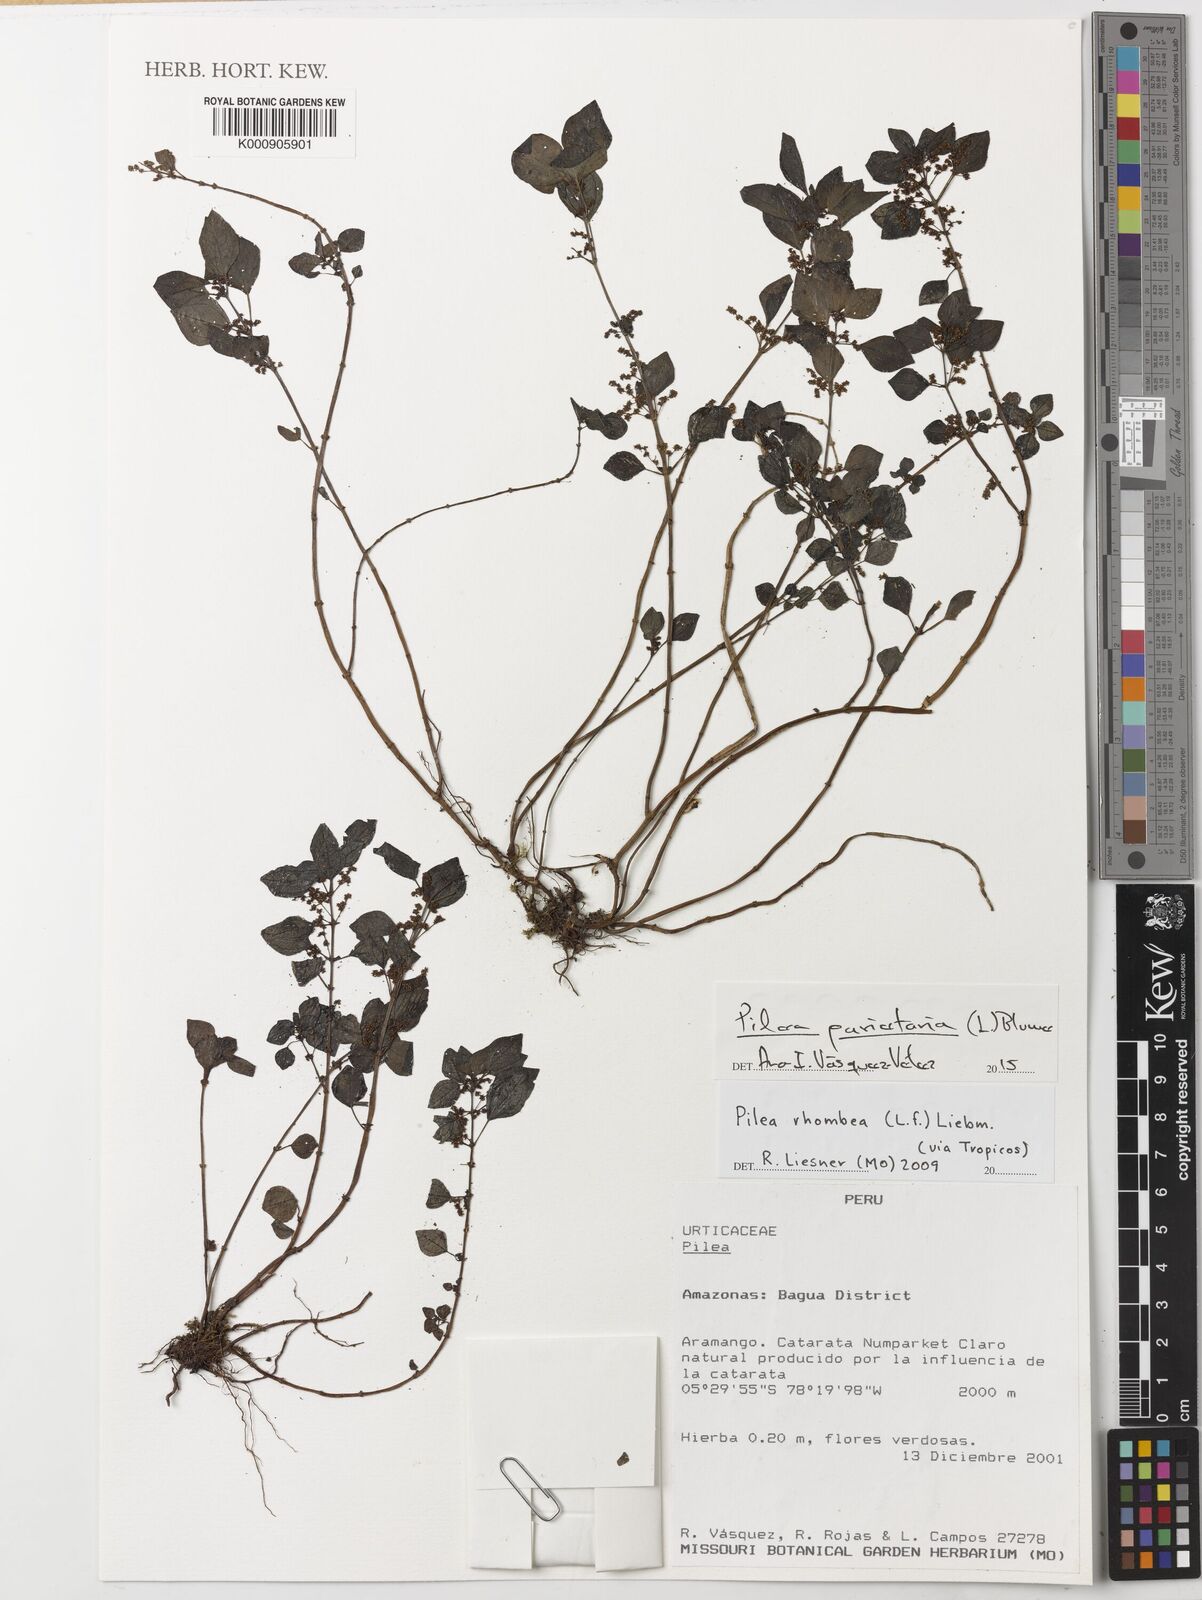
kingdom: Plantae
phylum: Tracheophyta
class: Magnoliopsida
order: Rosales
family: Urticaceae
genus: Pilea
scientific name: Pilea parietaria
